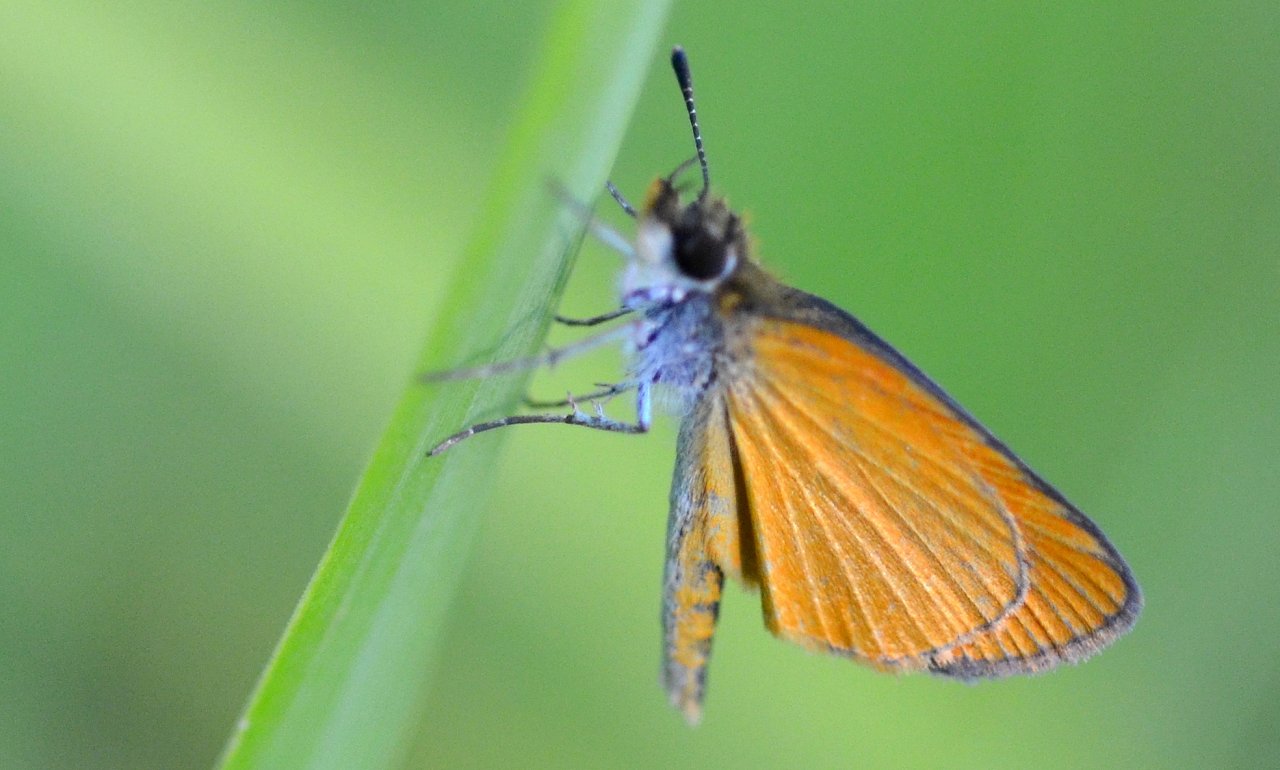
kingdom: Animalia
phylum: Arthropoda
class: Insecta
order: Lepidoptera
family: Hesperiidae
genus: Ancyloxypha
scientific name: Ancyloxypha numitor
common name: Least Skipper
